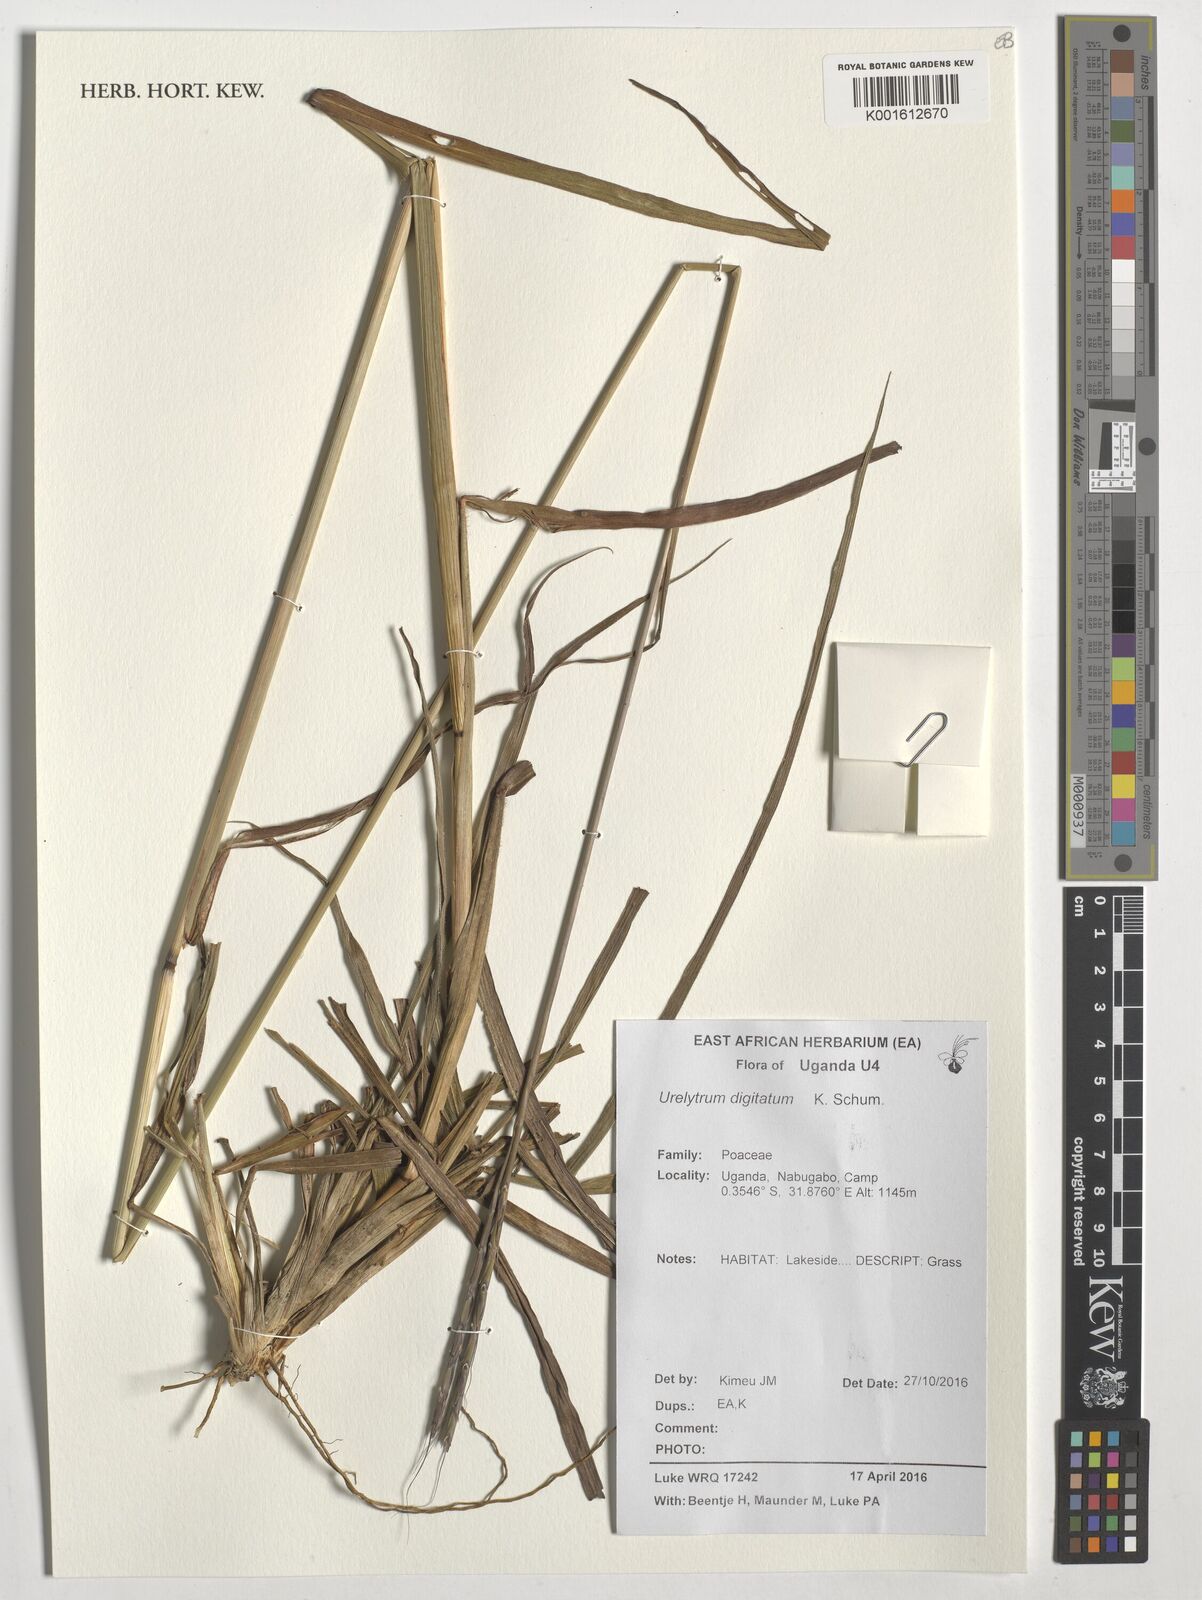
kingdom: Plantae
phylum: Tracheophyta
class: Liliopsida
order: Poales
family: Poaceae
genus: Urelytrum
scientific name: Urelytrum digitatum
